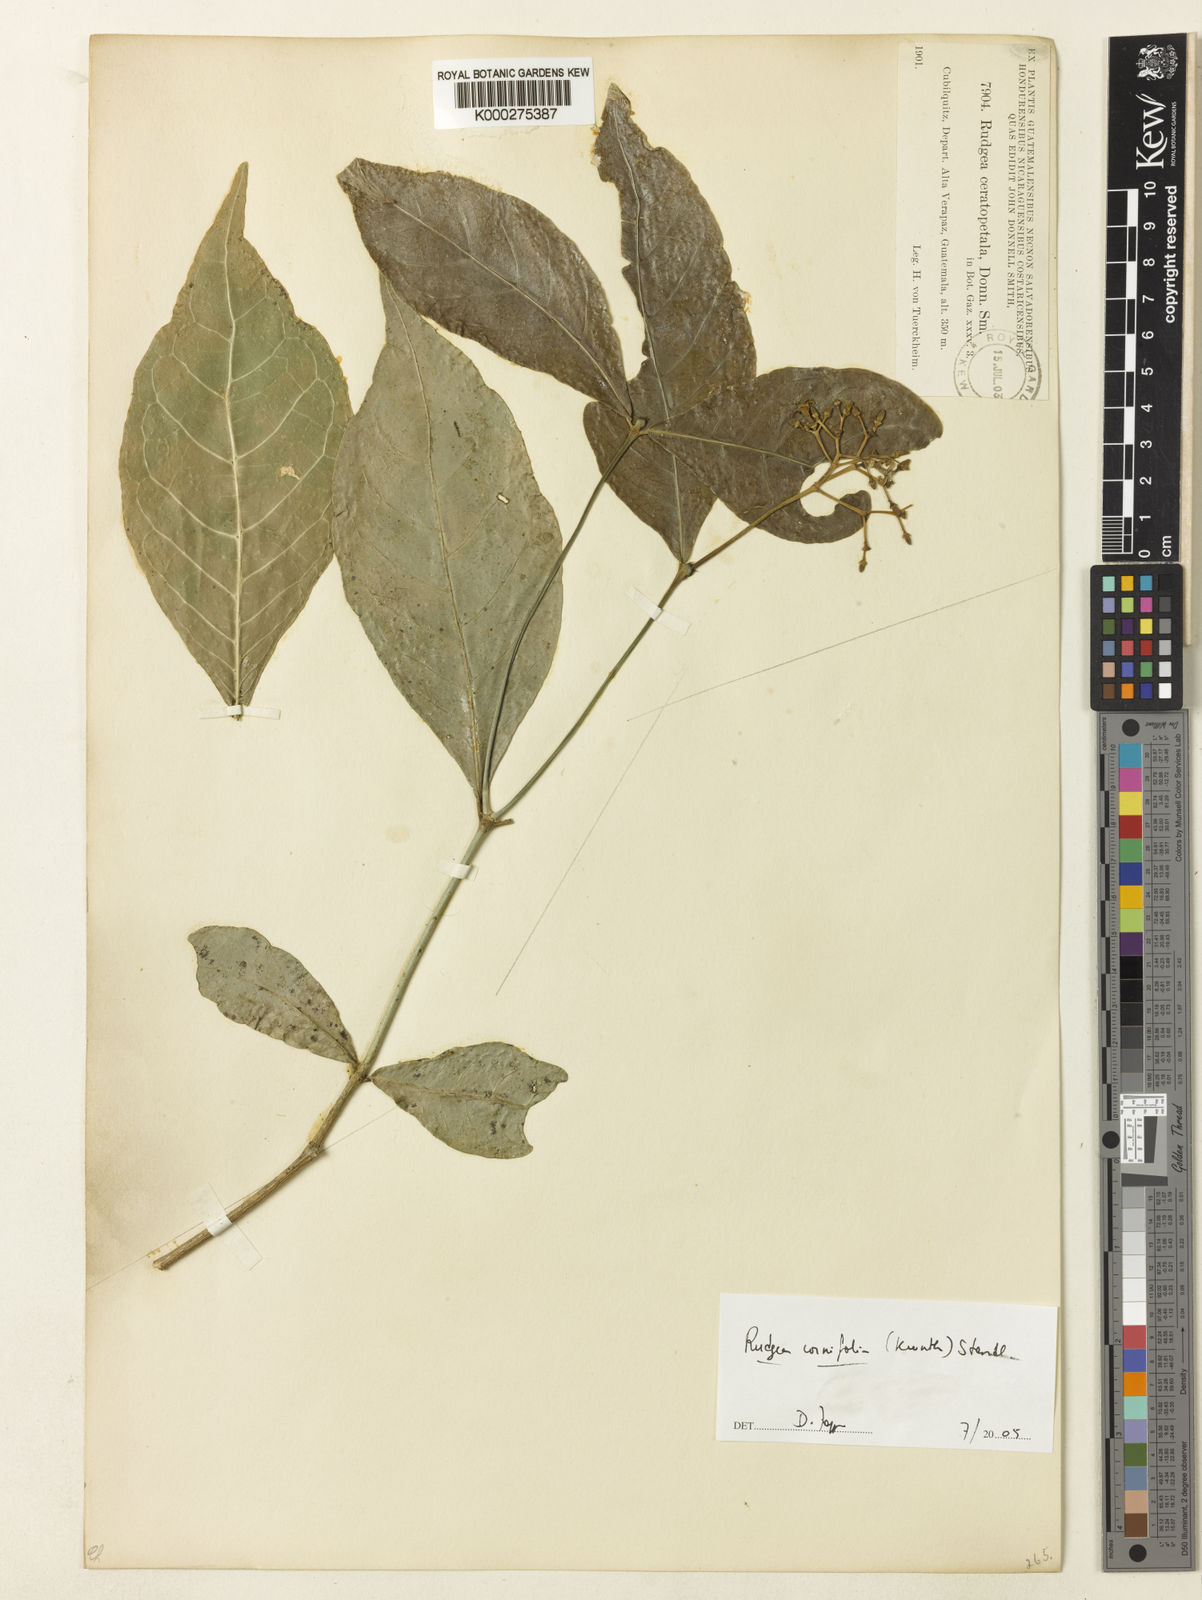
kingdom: Plantae
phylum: Tracheophyta
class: Magnoliopsida
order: Gentianales
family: Rubiaceae
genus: Rudgea
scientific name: Rudgea cornifolia
